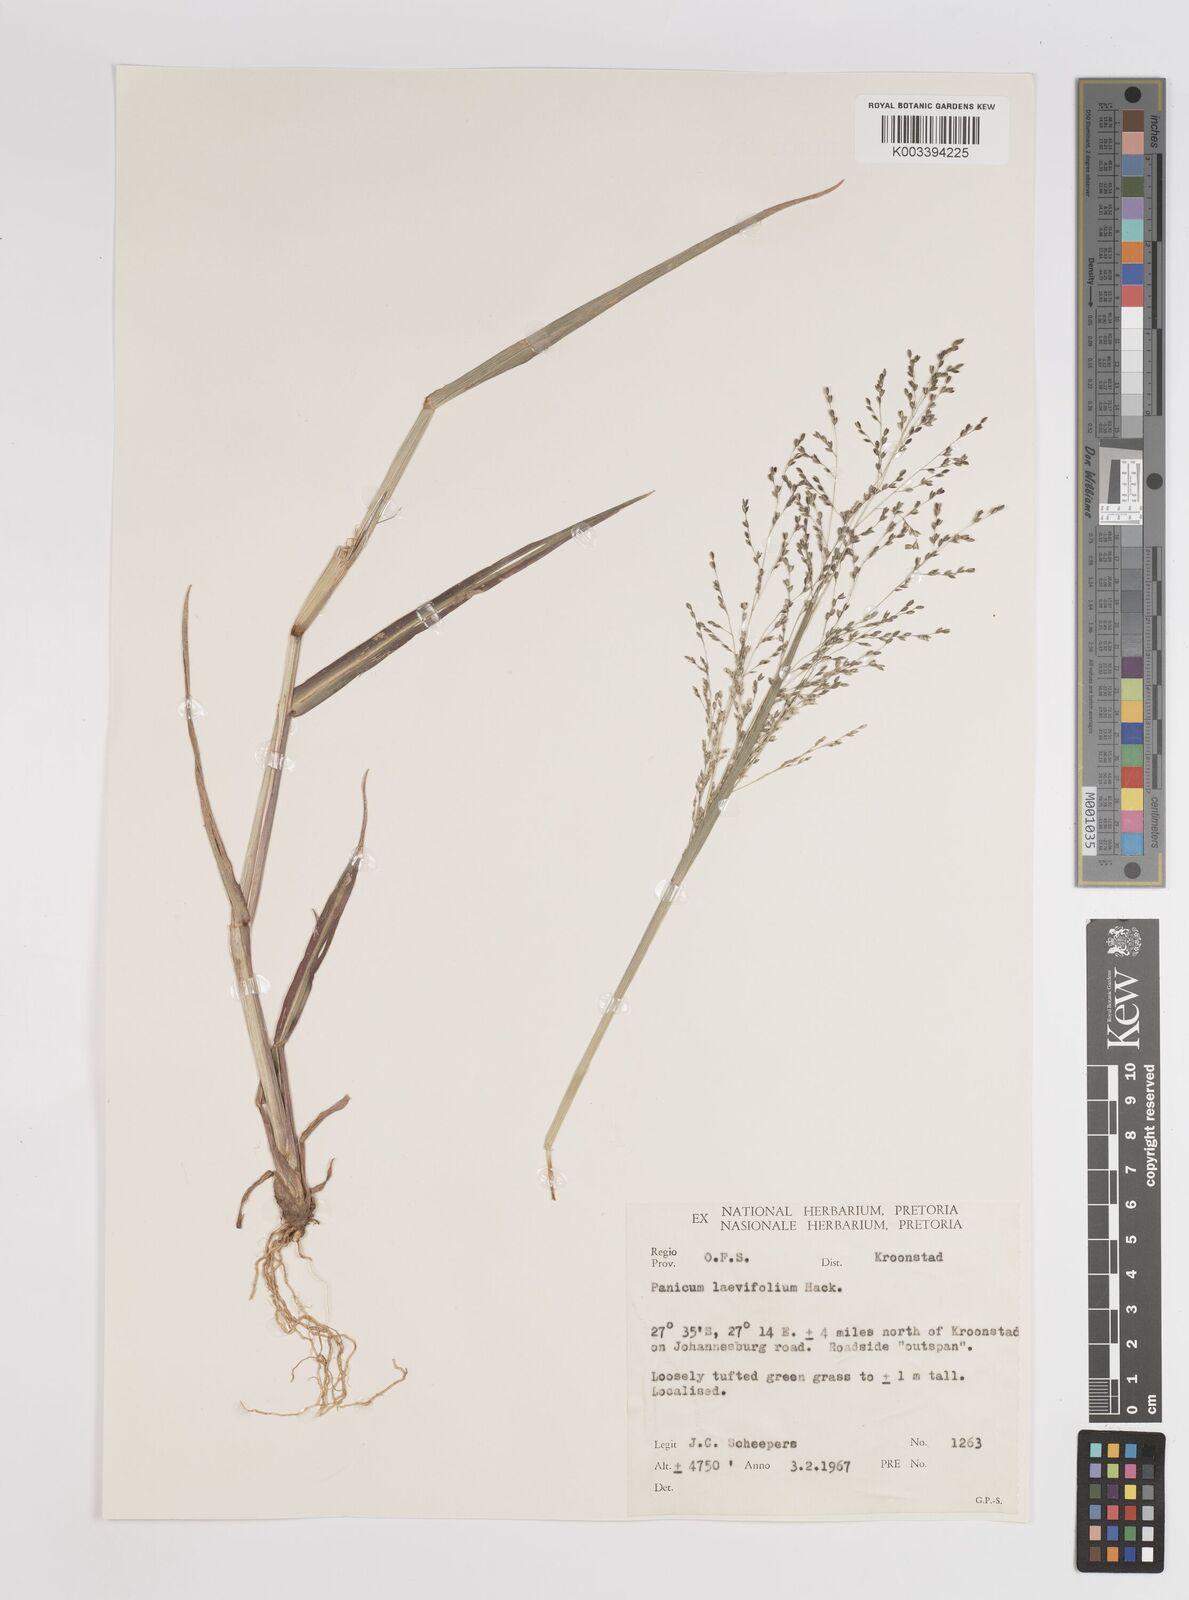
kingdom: Plantae
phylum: Tracheophyta
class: Liliopsida
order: Poales
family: Poaceae
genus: Panicum
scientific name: Panicum schinzii
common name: Sweet grass
